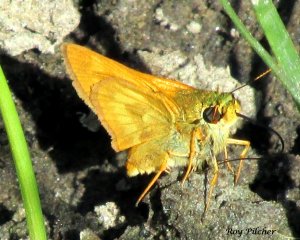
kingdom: Animalia
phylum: Arthropoda
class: Insecta
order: Lepidoptera
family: Hesperiidae
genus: Polites
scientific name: Polites
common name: Long Dash Skipper
